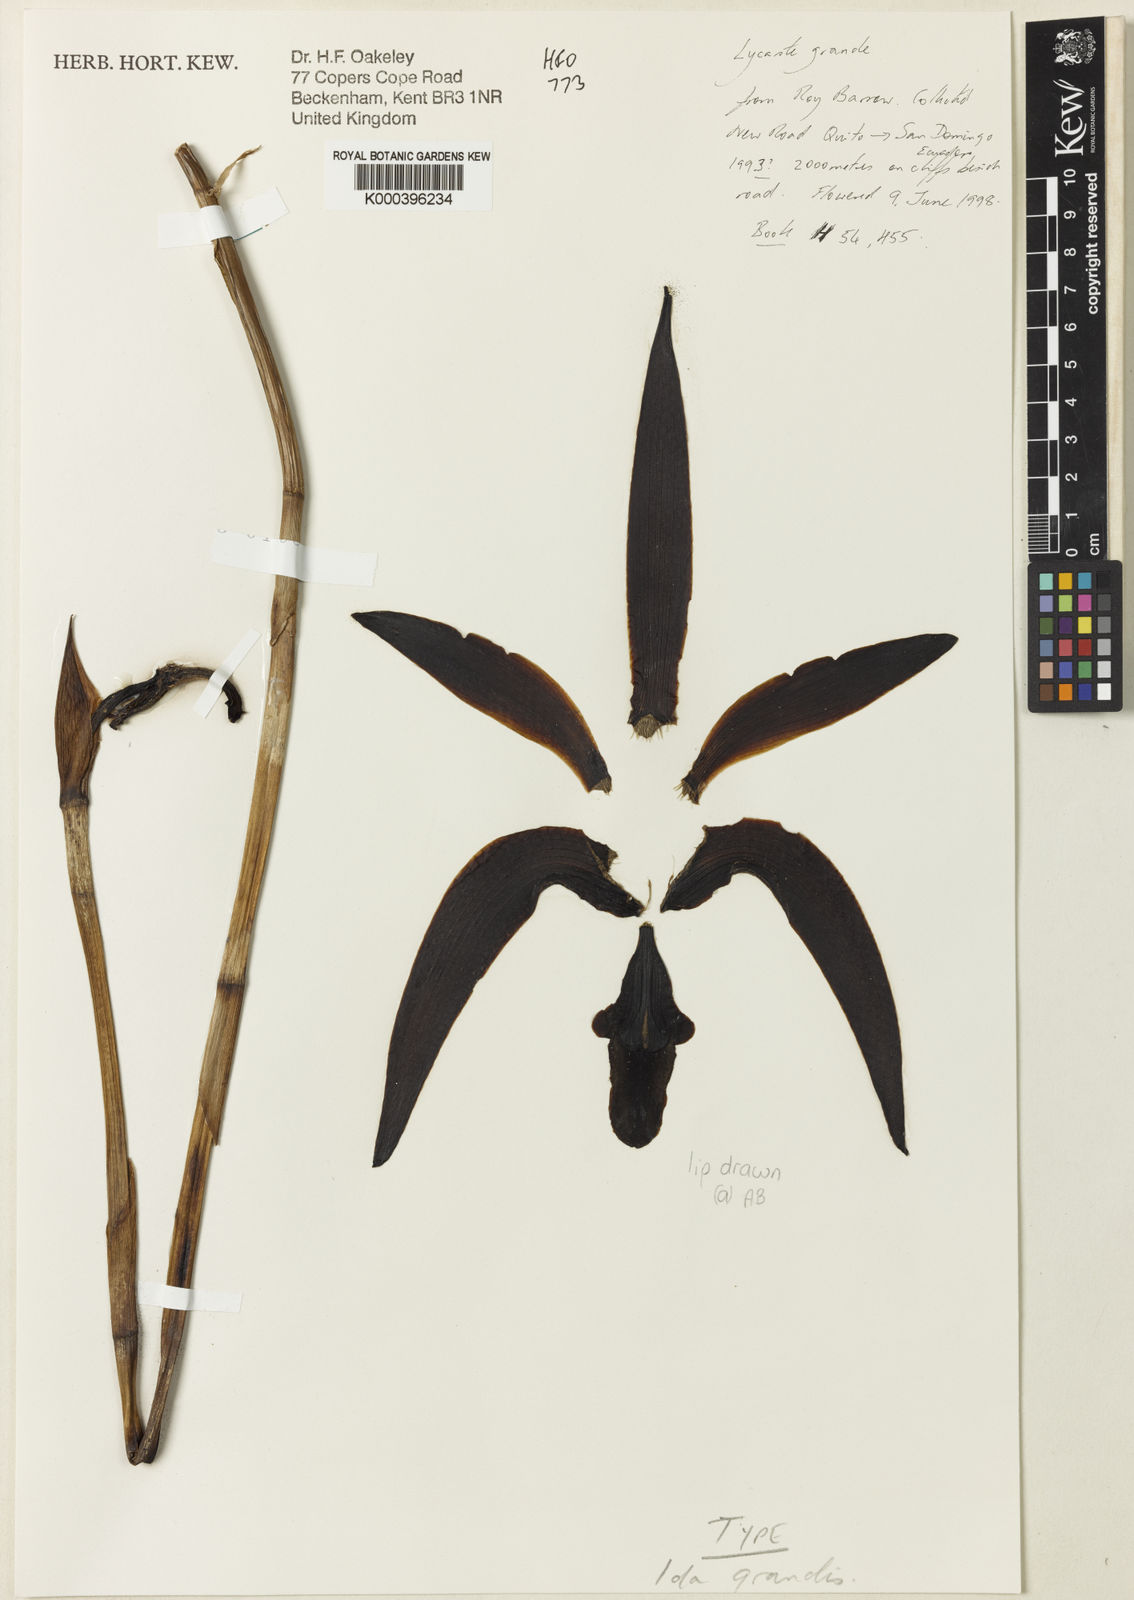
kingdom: Plantae
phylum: Tracheophyta
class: Liliopsida
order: Asparagales
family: Orchidaceae
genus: Ida
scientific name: Ida grandis
